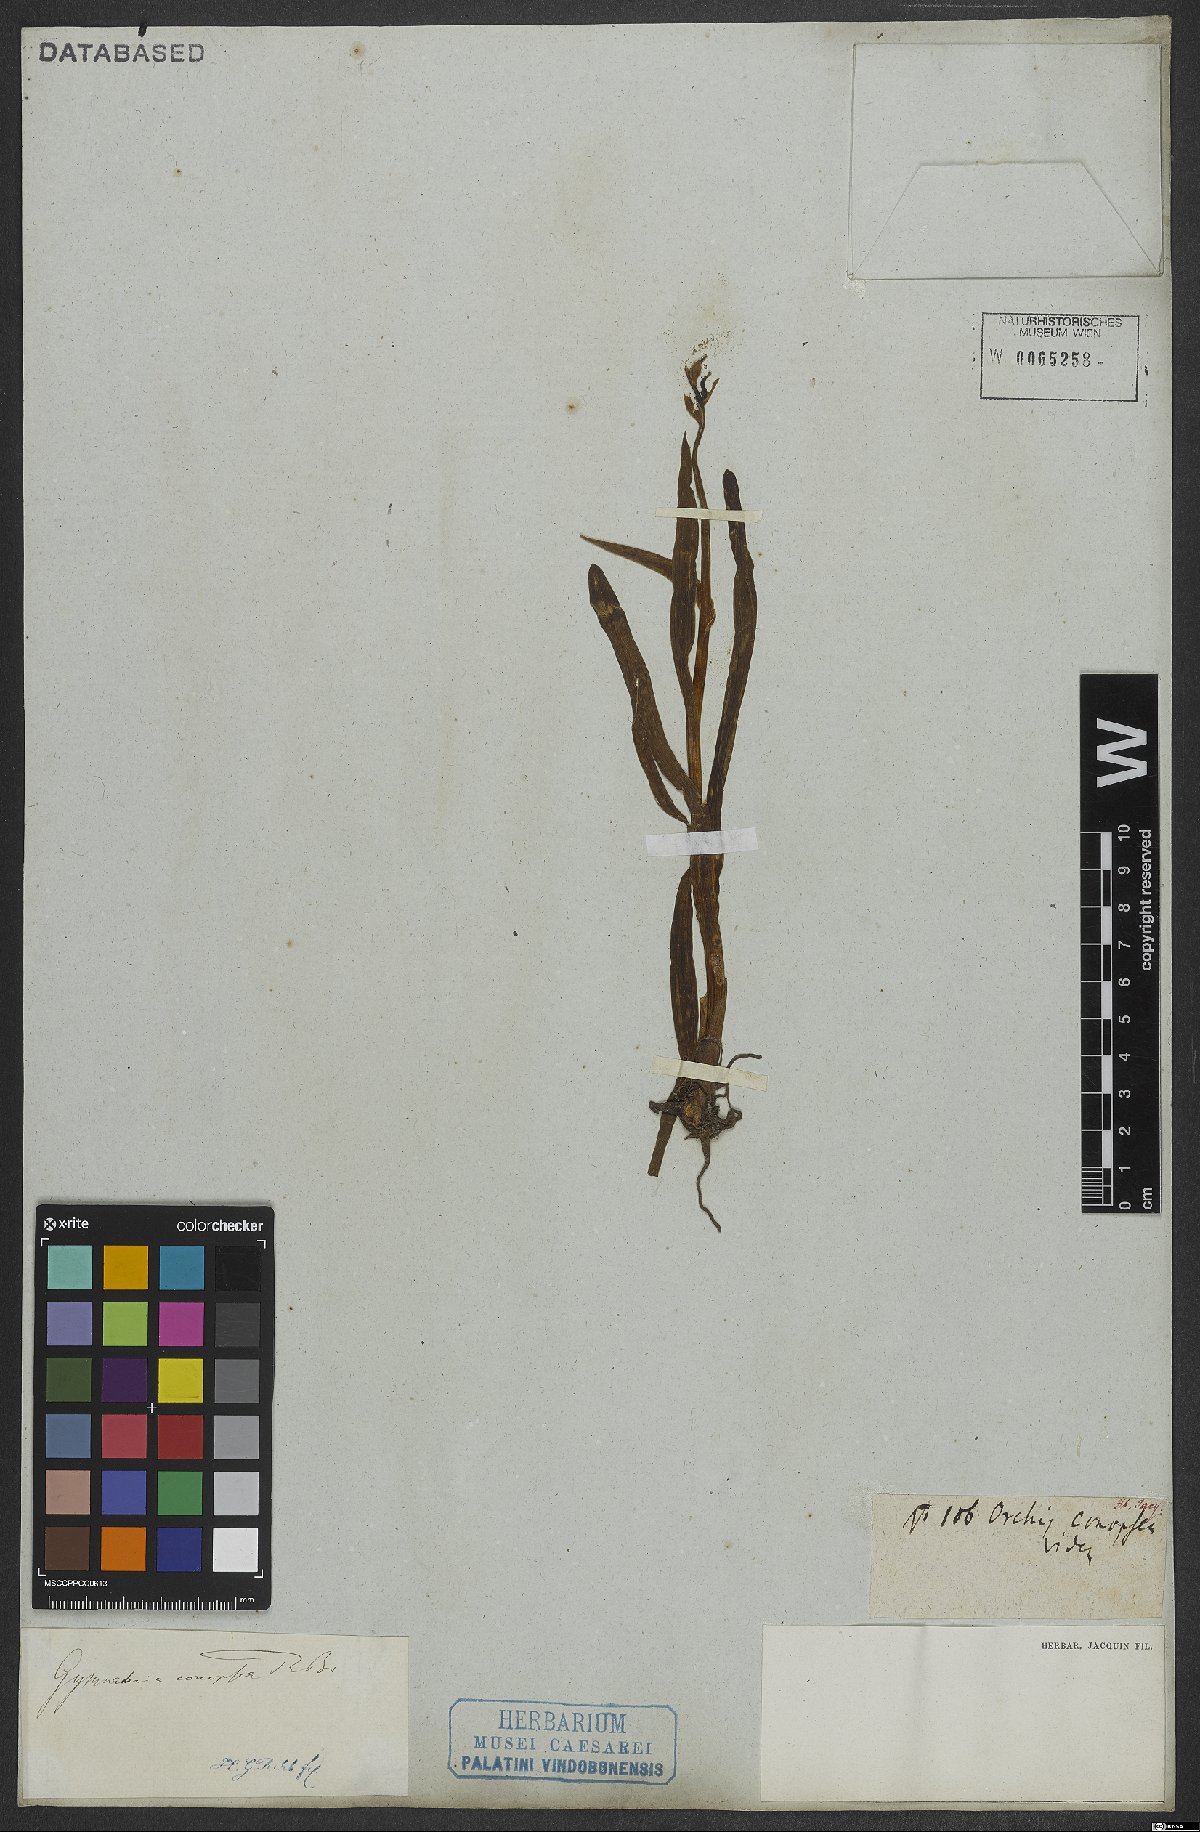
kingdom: Plantae
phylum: Tracheophyta
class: Liliopsida
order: Asparagales
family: Orchidaceae
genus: Gymnadenia
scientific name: Gymnadenia conopsea
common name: Fragrant orchid
